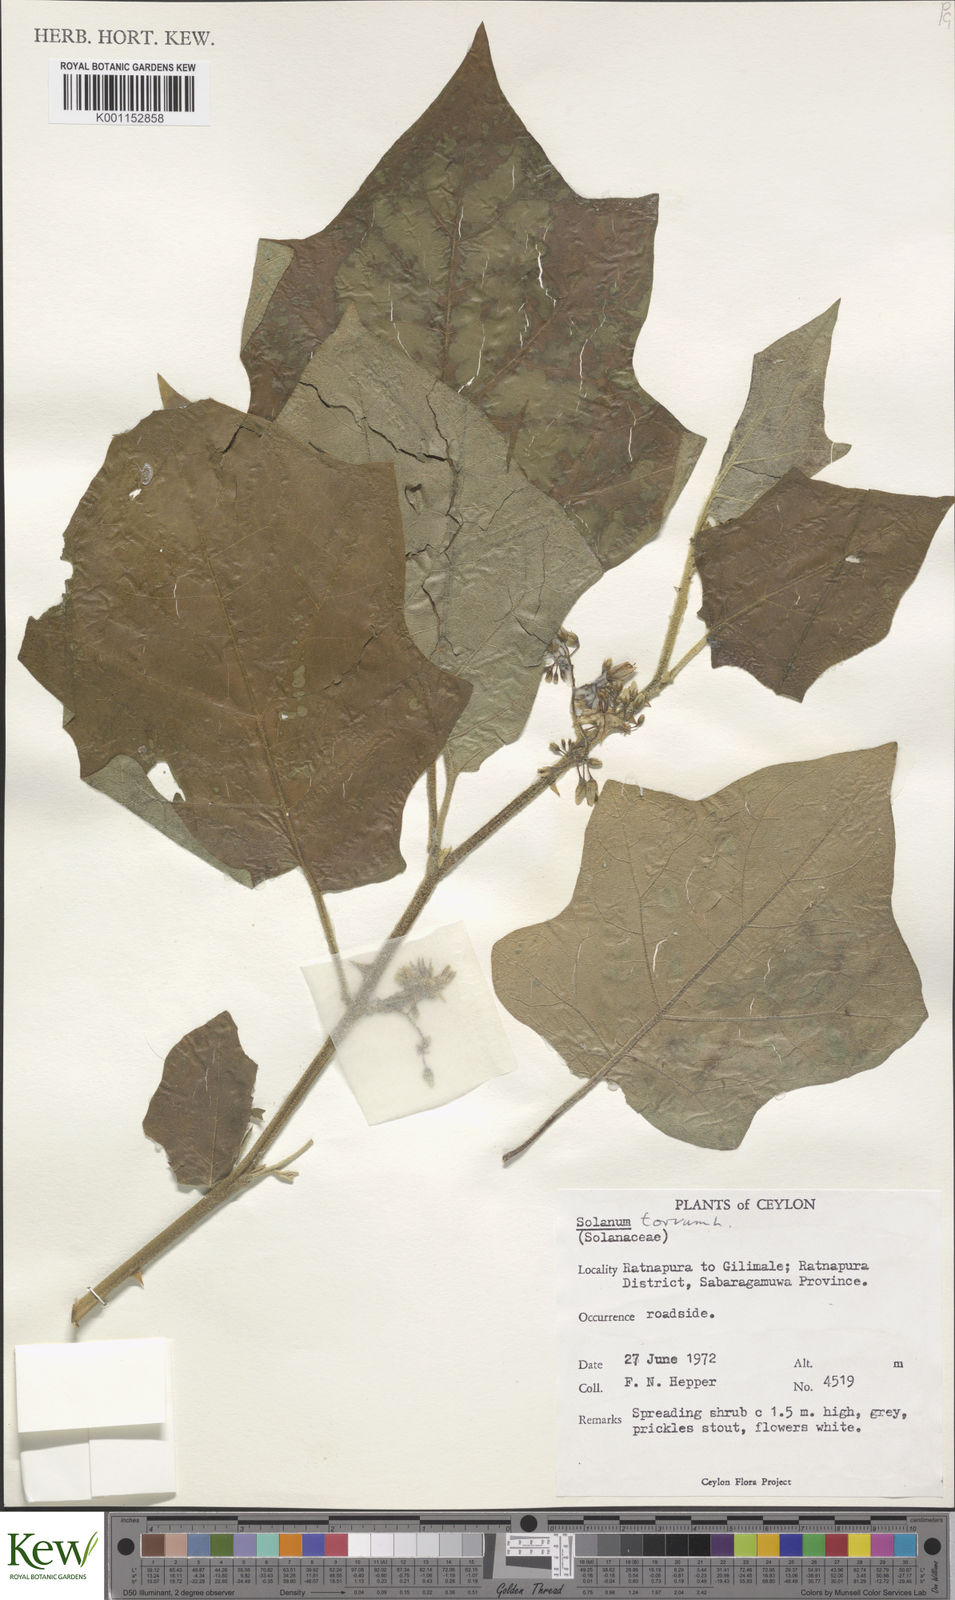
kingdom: Plantae
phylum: Tracheophyta
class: Magnoliopsida
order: Solanales
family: Solanaceae
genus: Solanum
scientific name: Solanum torvum
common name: Turkey berry
